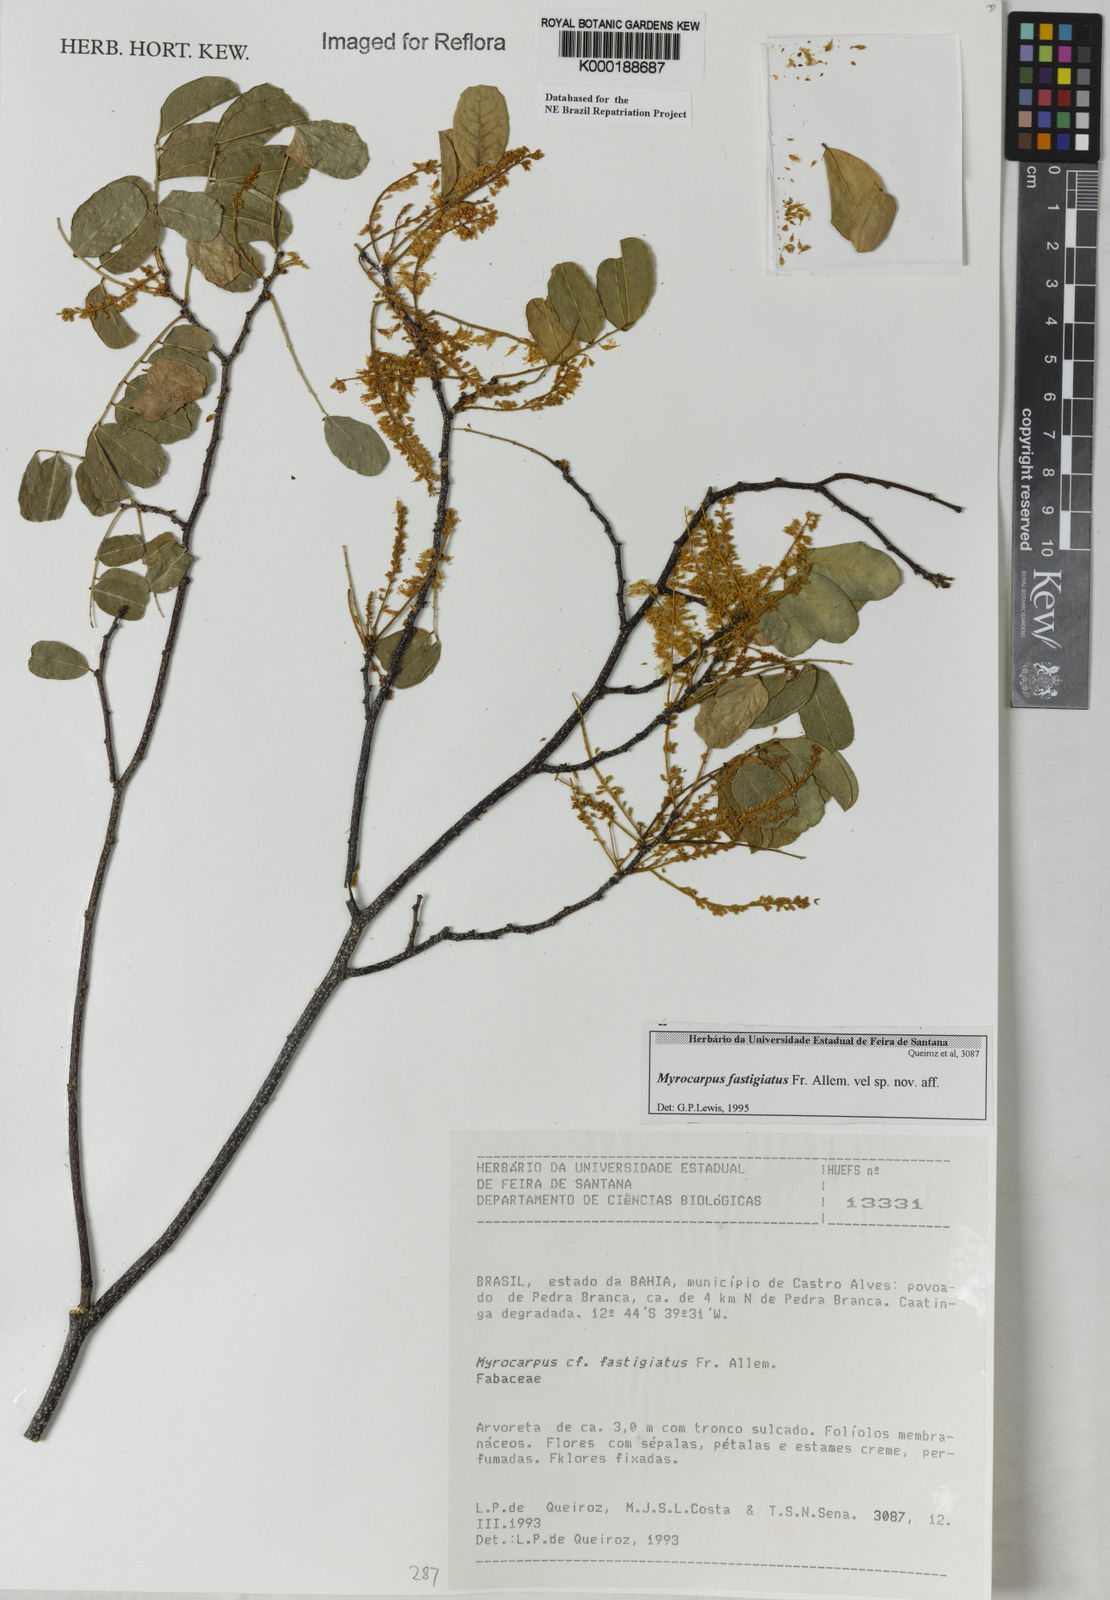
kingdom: Plantae
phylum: Tracheophyta
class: Magnoliopsida
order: Fabales
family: Fabaceae
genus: Myrocarpus
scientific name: Myrocarpus fastigiatus
